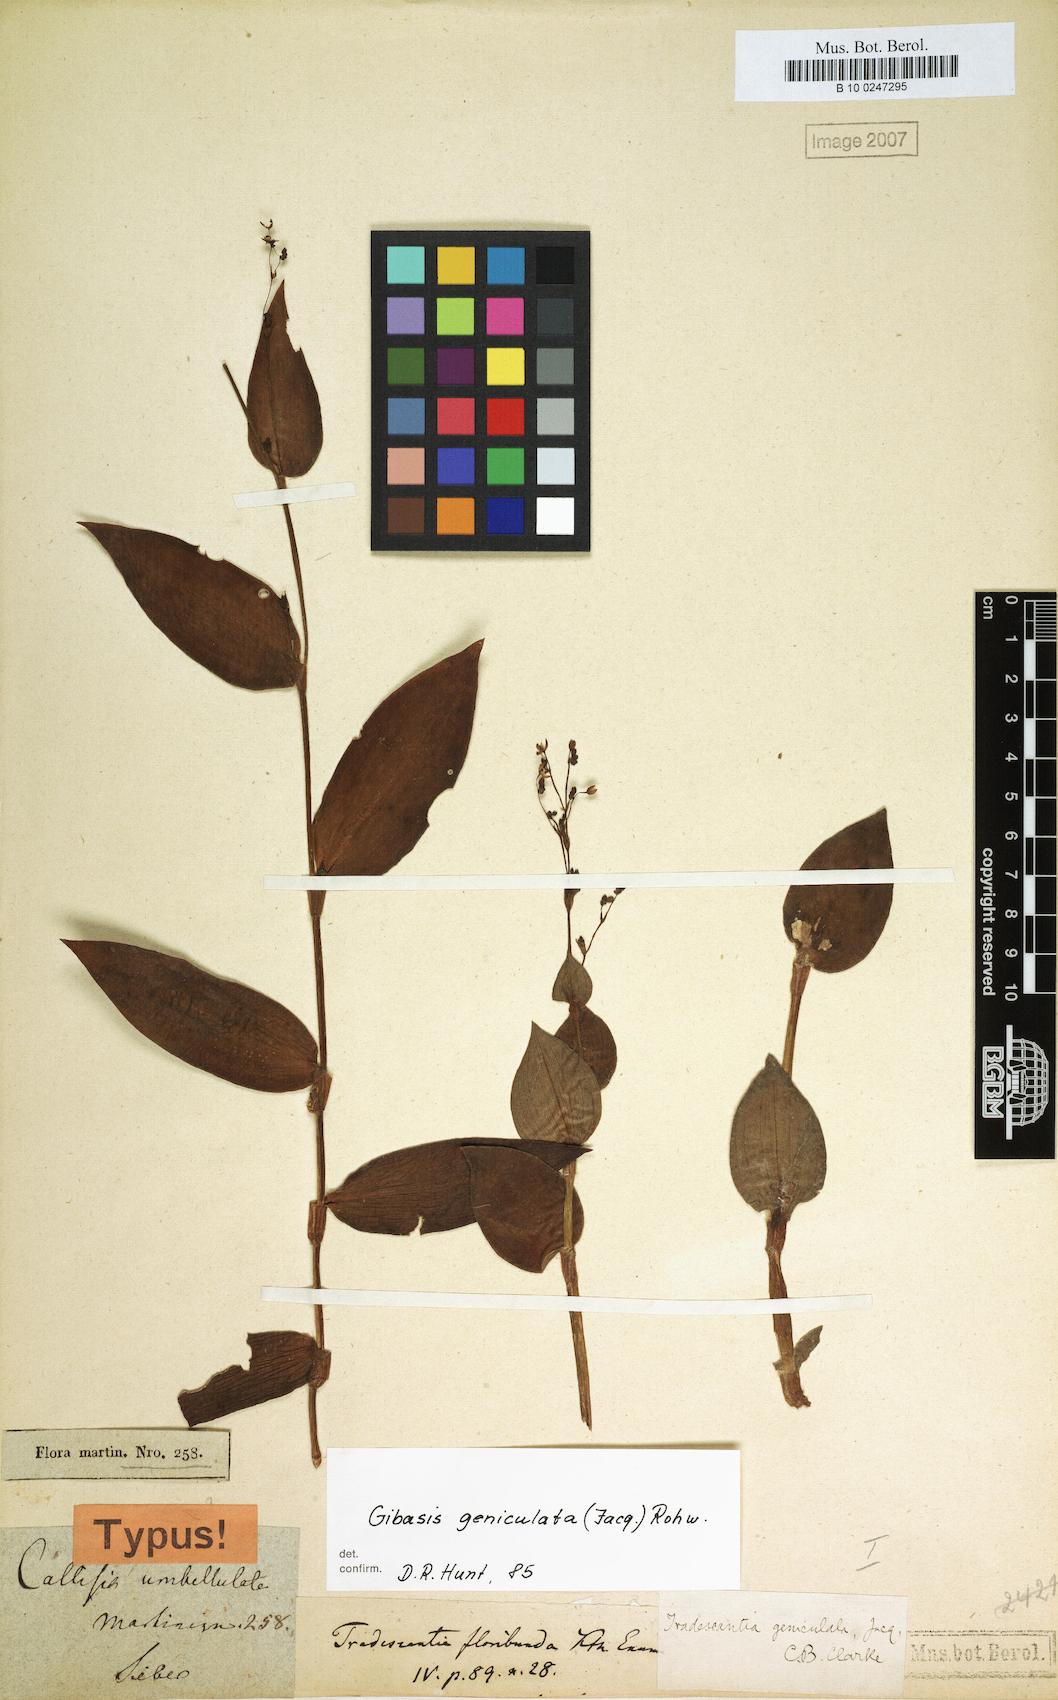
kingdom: Plantae
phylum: Tracheophyta
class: Liliopsida
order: Commelinales
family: Commelinaceae
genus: Gibasis
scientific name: Gibasis geniculata
